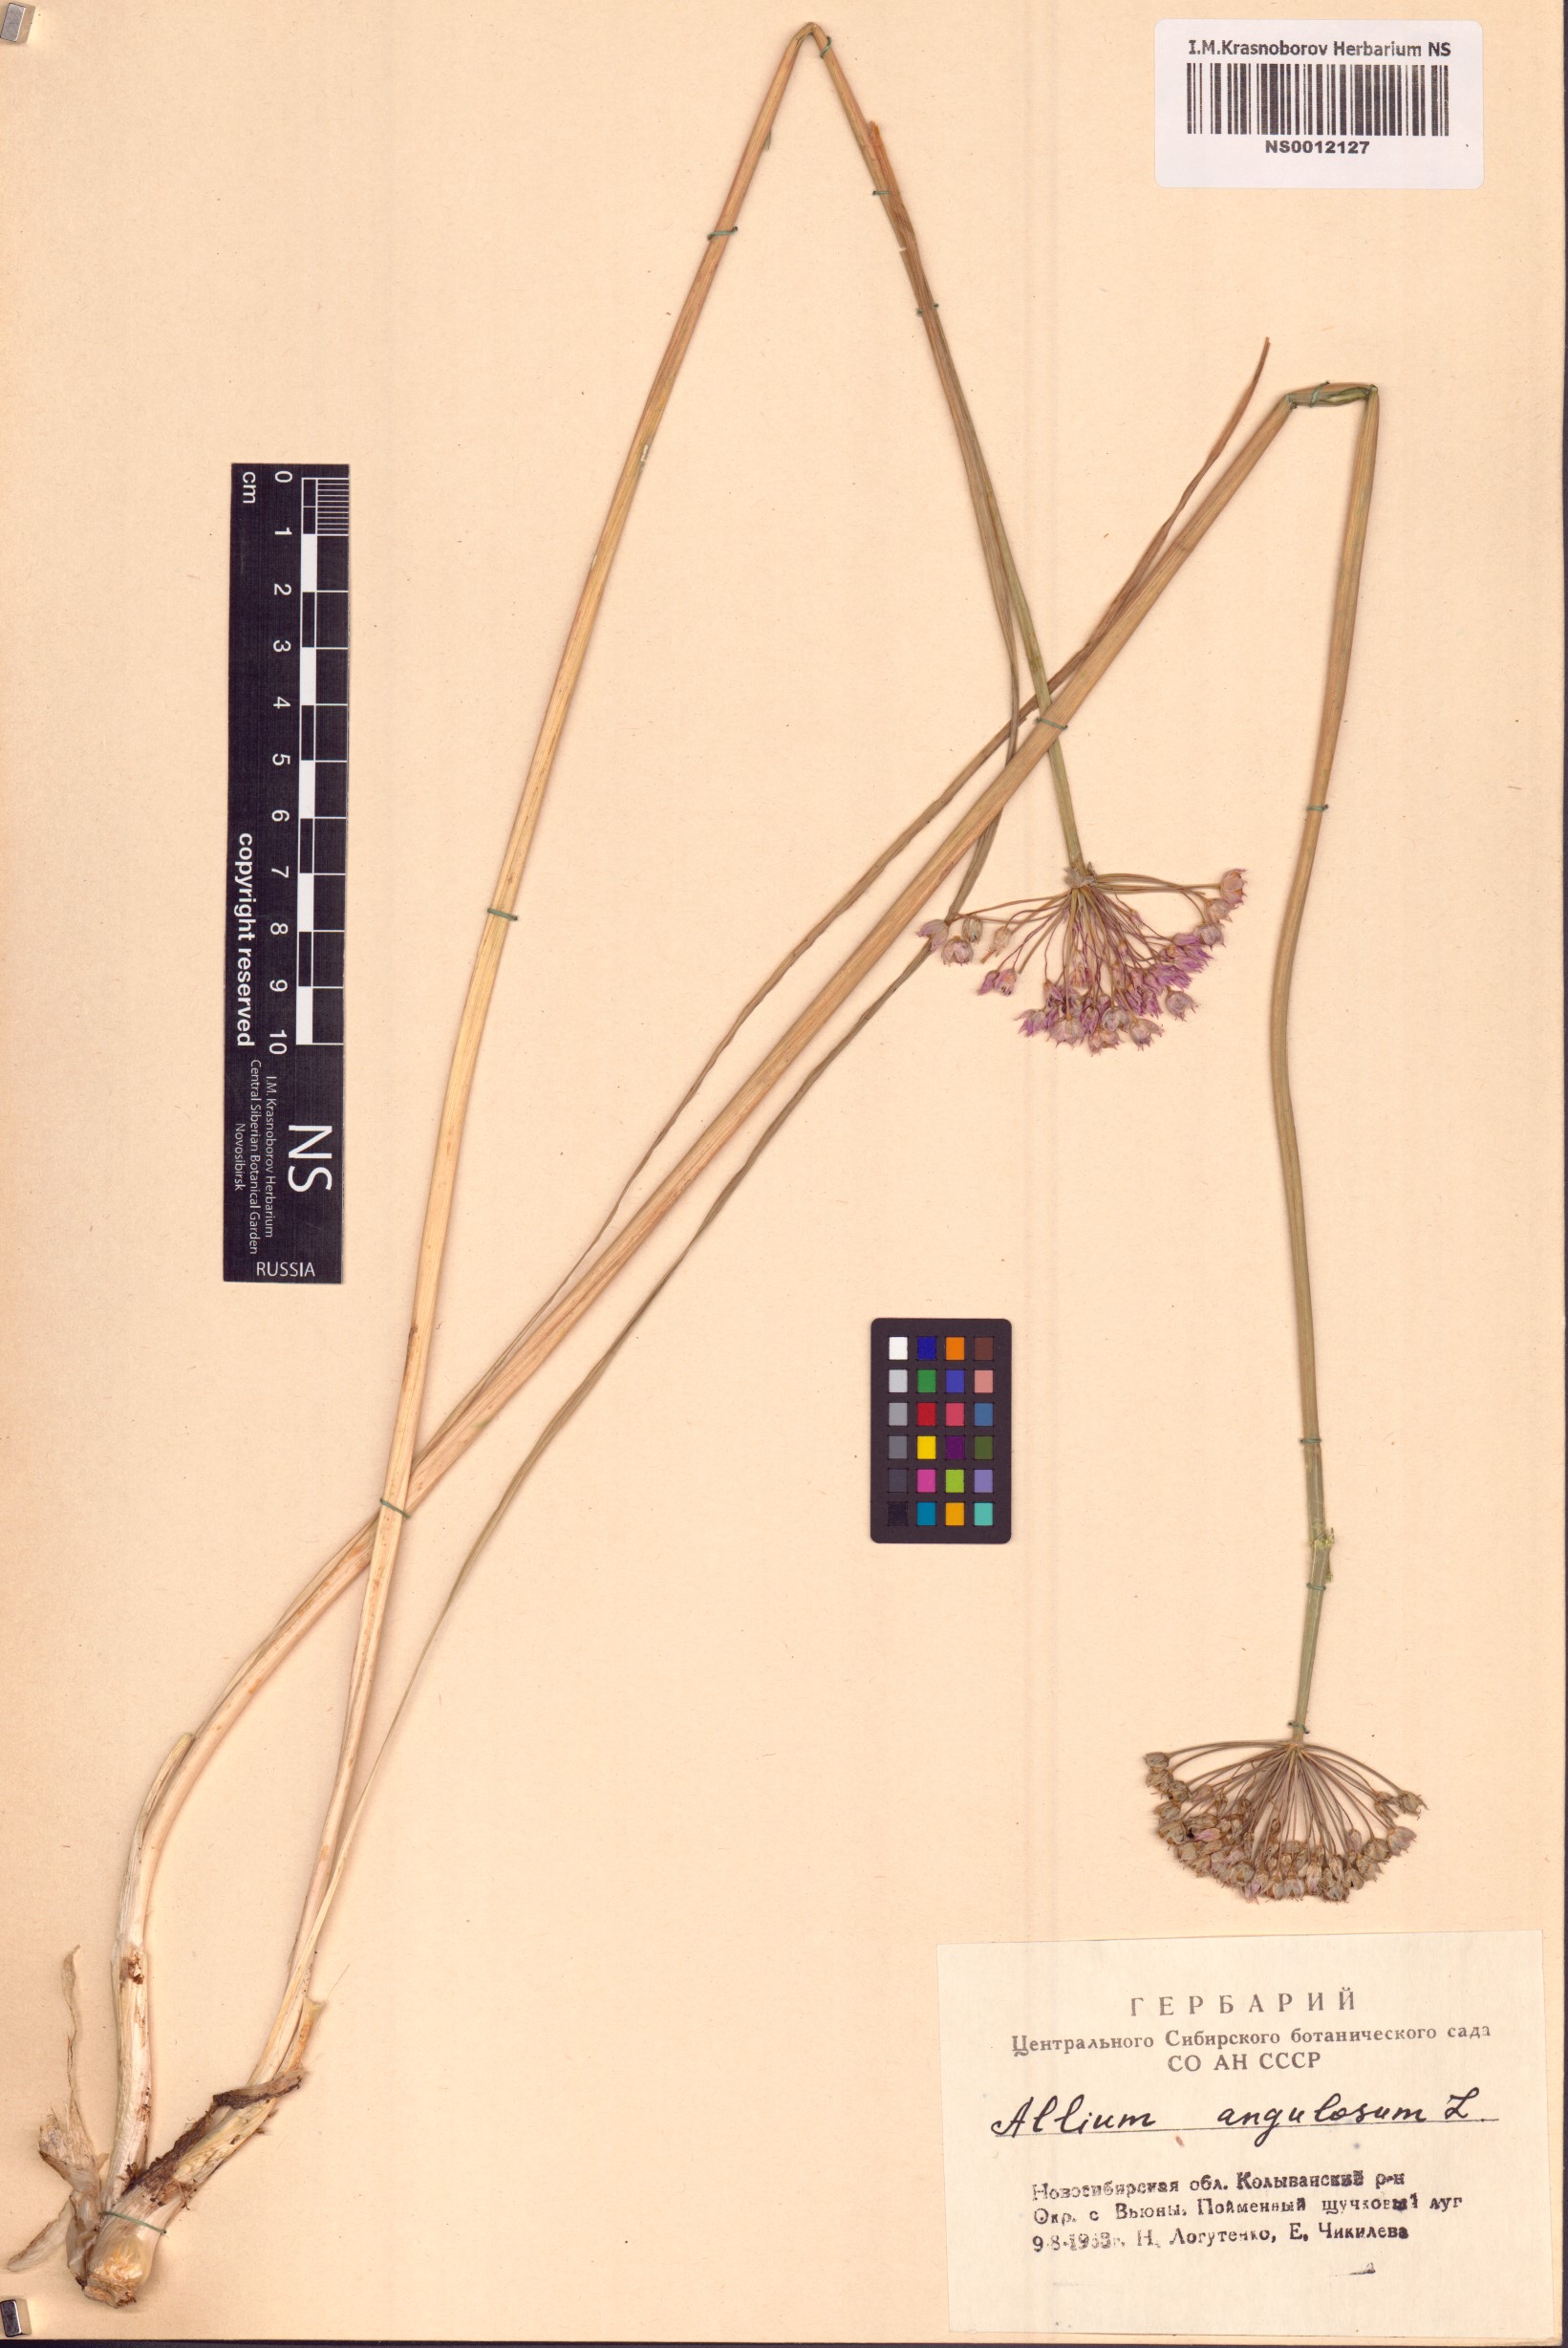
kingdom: Plantae
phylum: Tracheophyta
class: Liliopsida
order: Asparagales
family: Amaryllidaceae
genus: Allium
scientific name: Allium angulosum
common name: Mouse garlic
